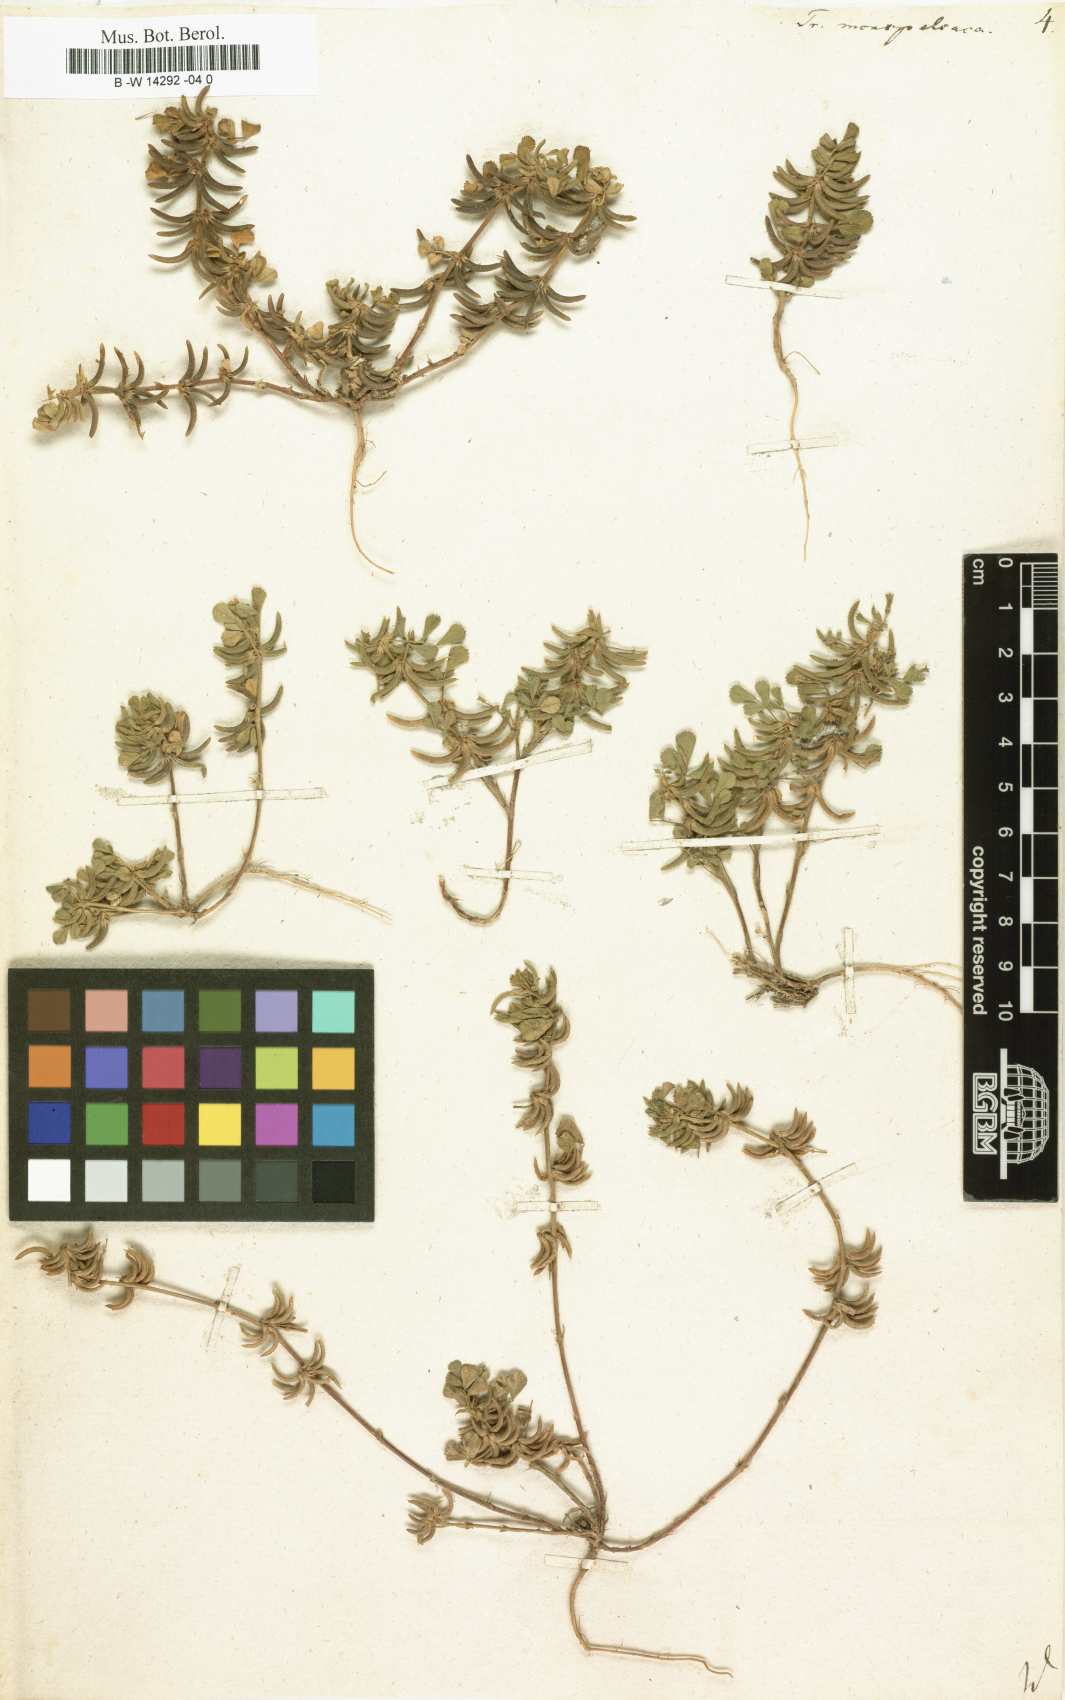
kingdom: Plantae
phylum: Tracheophyta
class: Magnoliopsida
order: Fabales
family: Fabaceae
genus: Medicago
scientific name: Medicago monspeliaca
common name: Hairy medick
